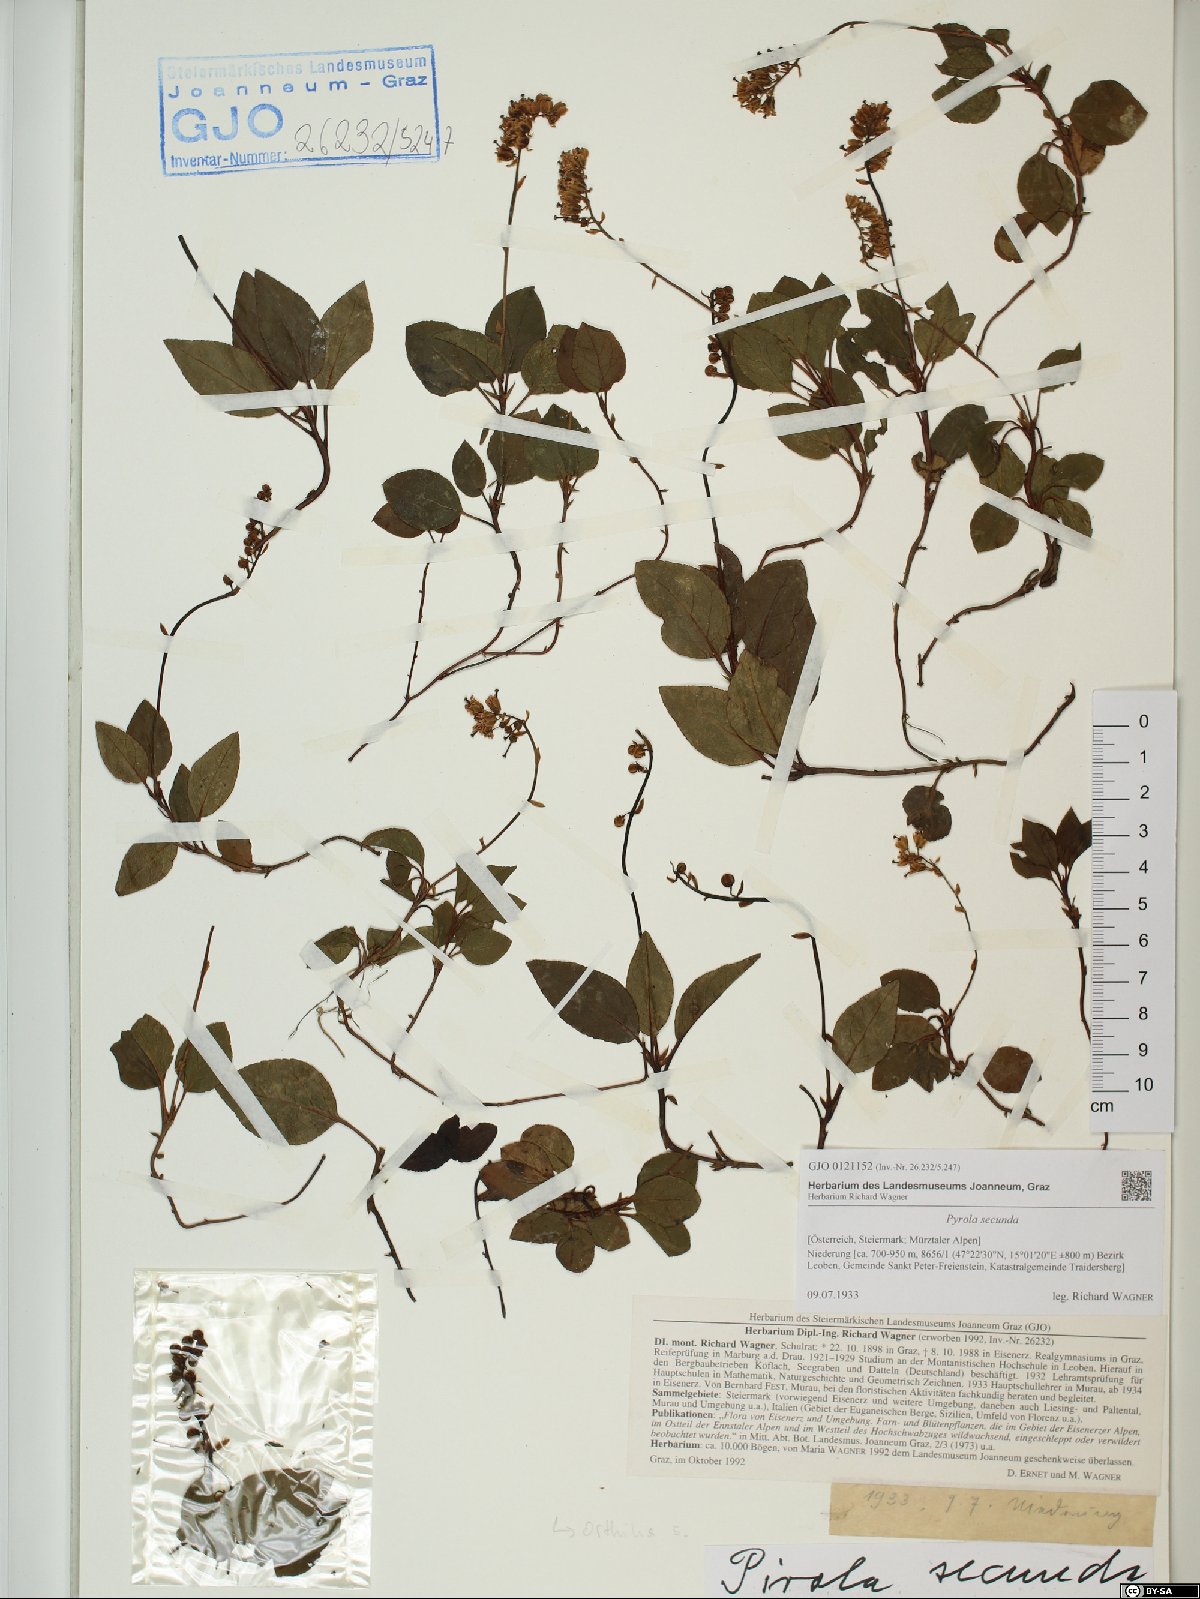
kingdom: Plantae
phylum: Tracheophyta
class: Magnoliopsida
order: Ericales
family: Ericaceae
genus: Orthilia
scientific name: Orthilia secunda
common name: One-sided orthilia
